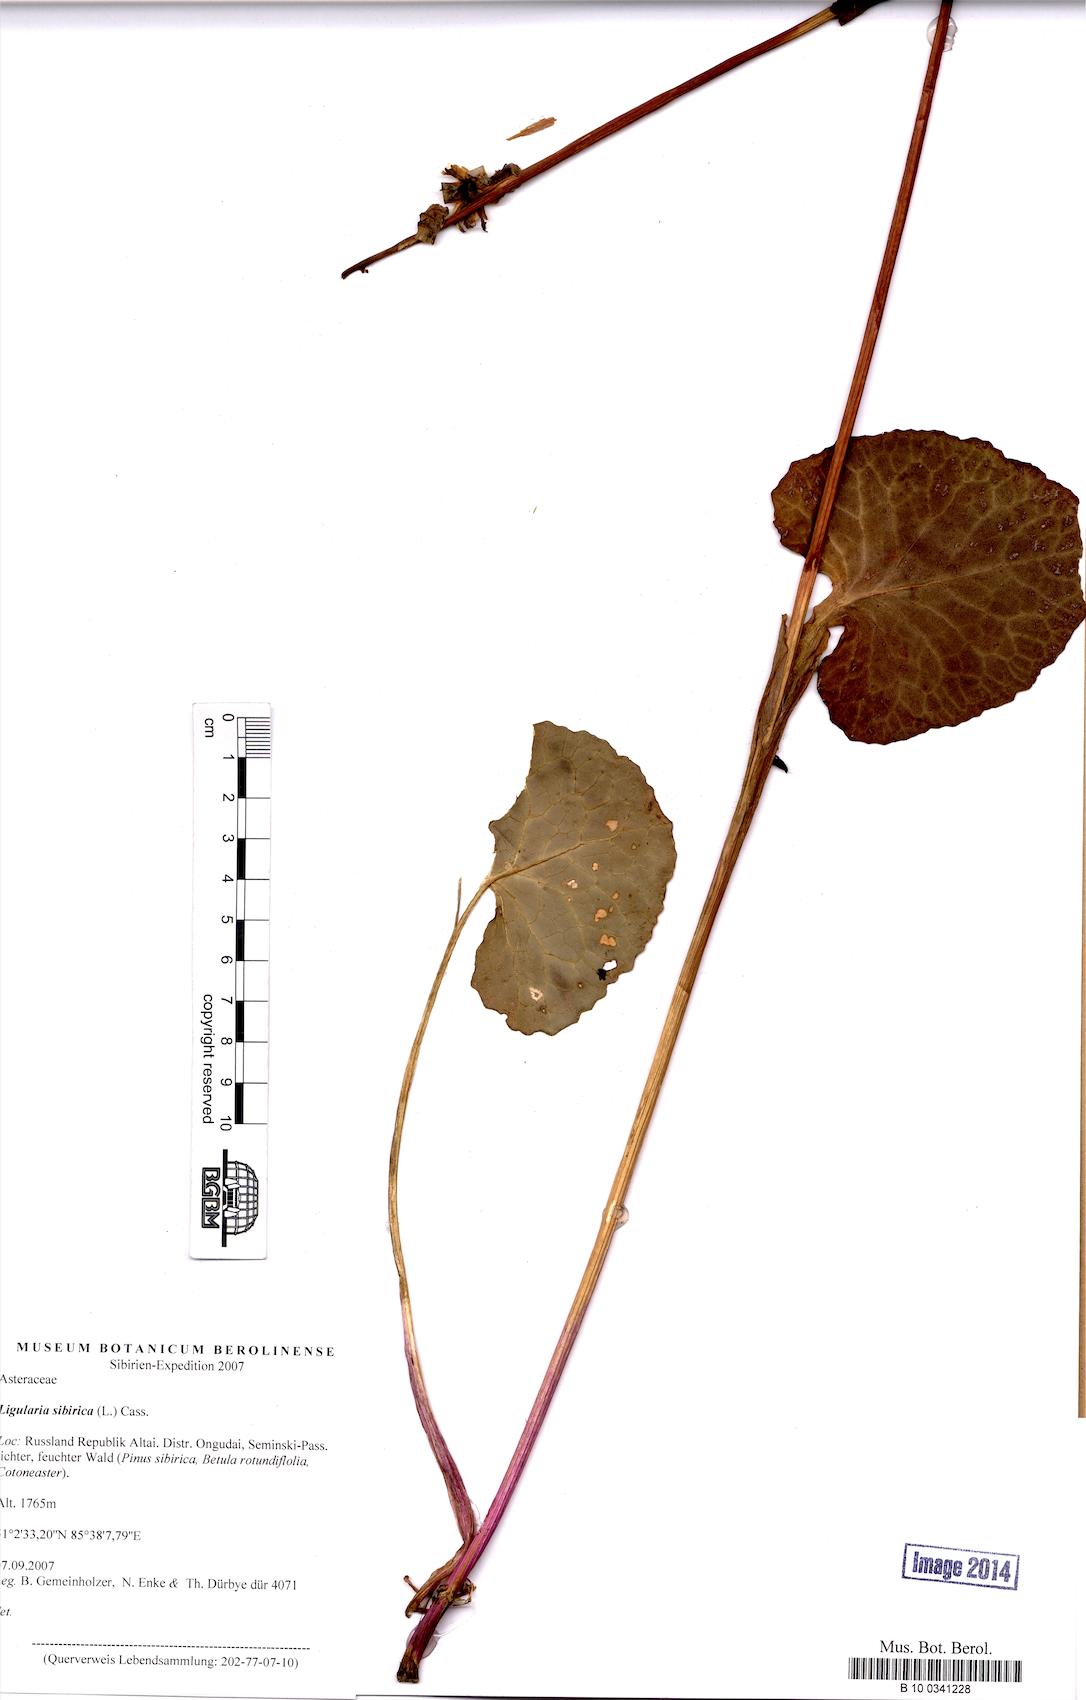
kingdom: Plantae
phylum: Tracheophyta
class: Magnoliopsida
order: Asterales
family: Asteraceae
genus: Ligularia
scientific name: Ligularia sibirica
